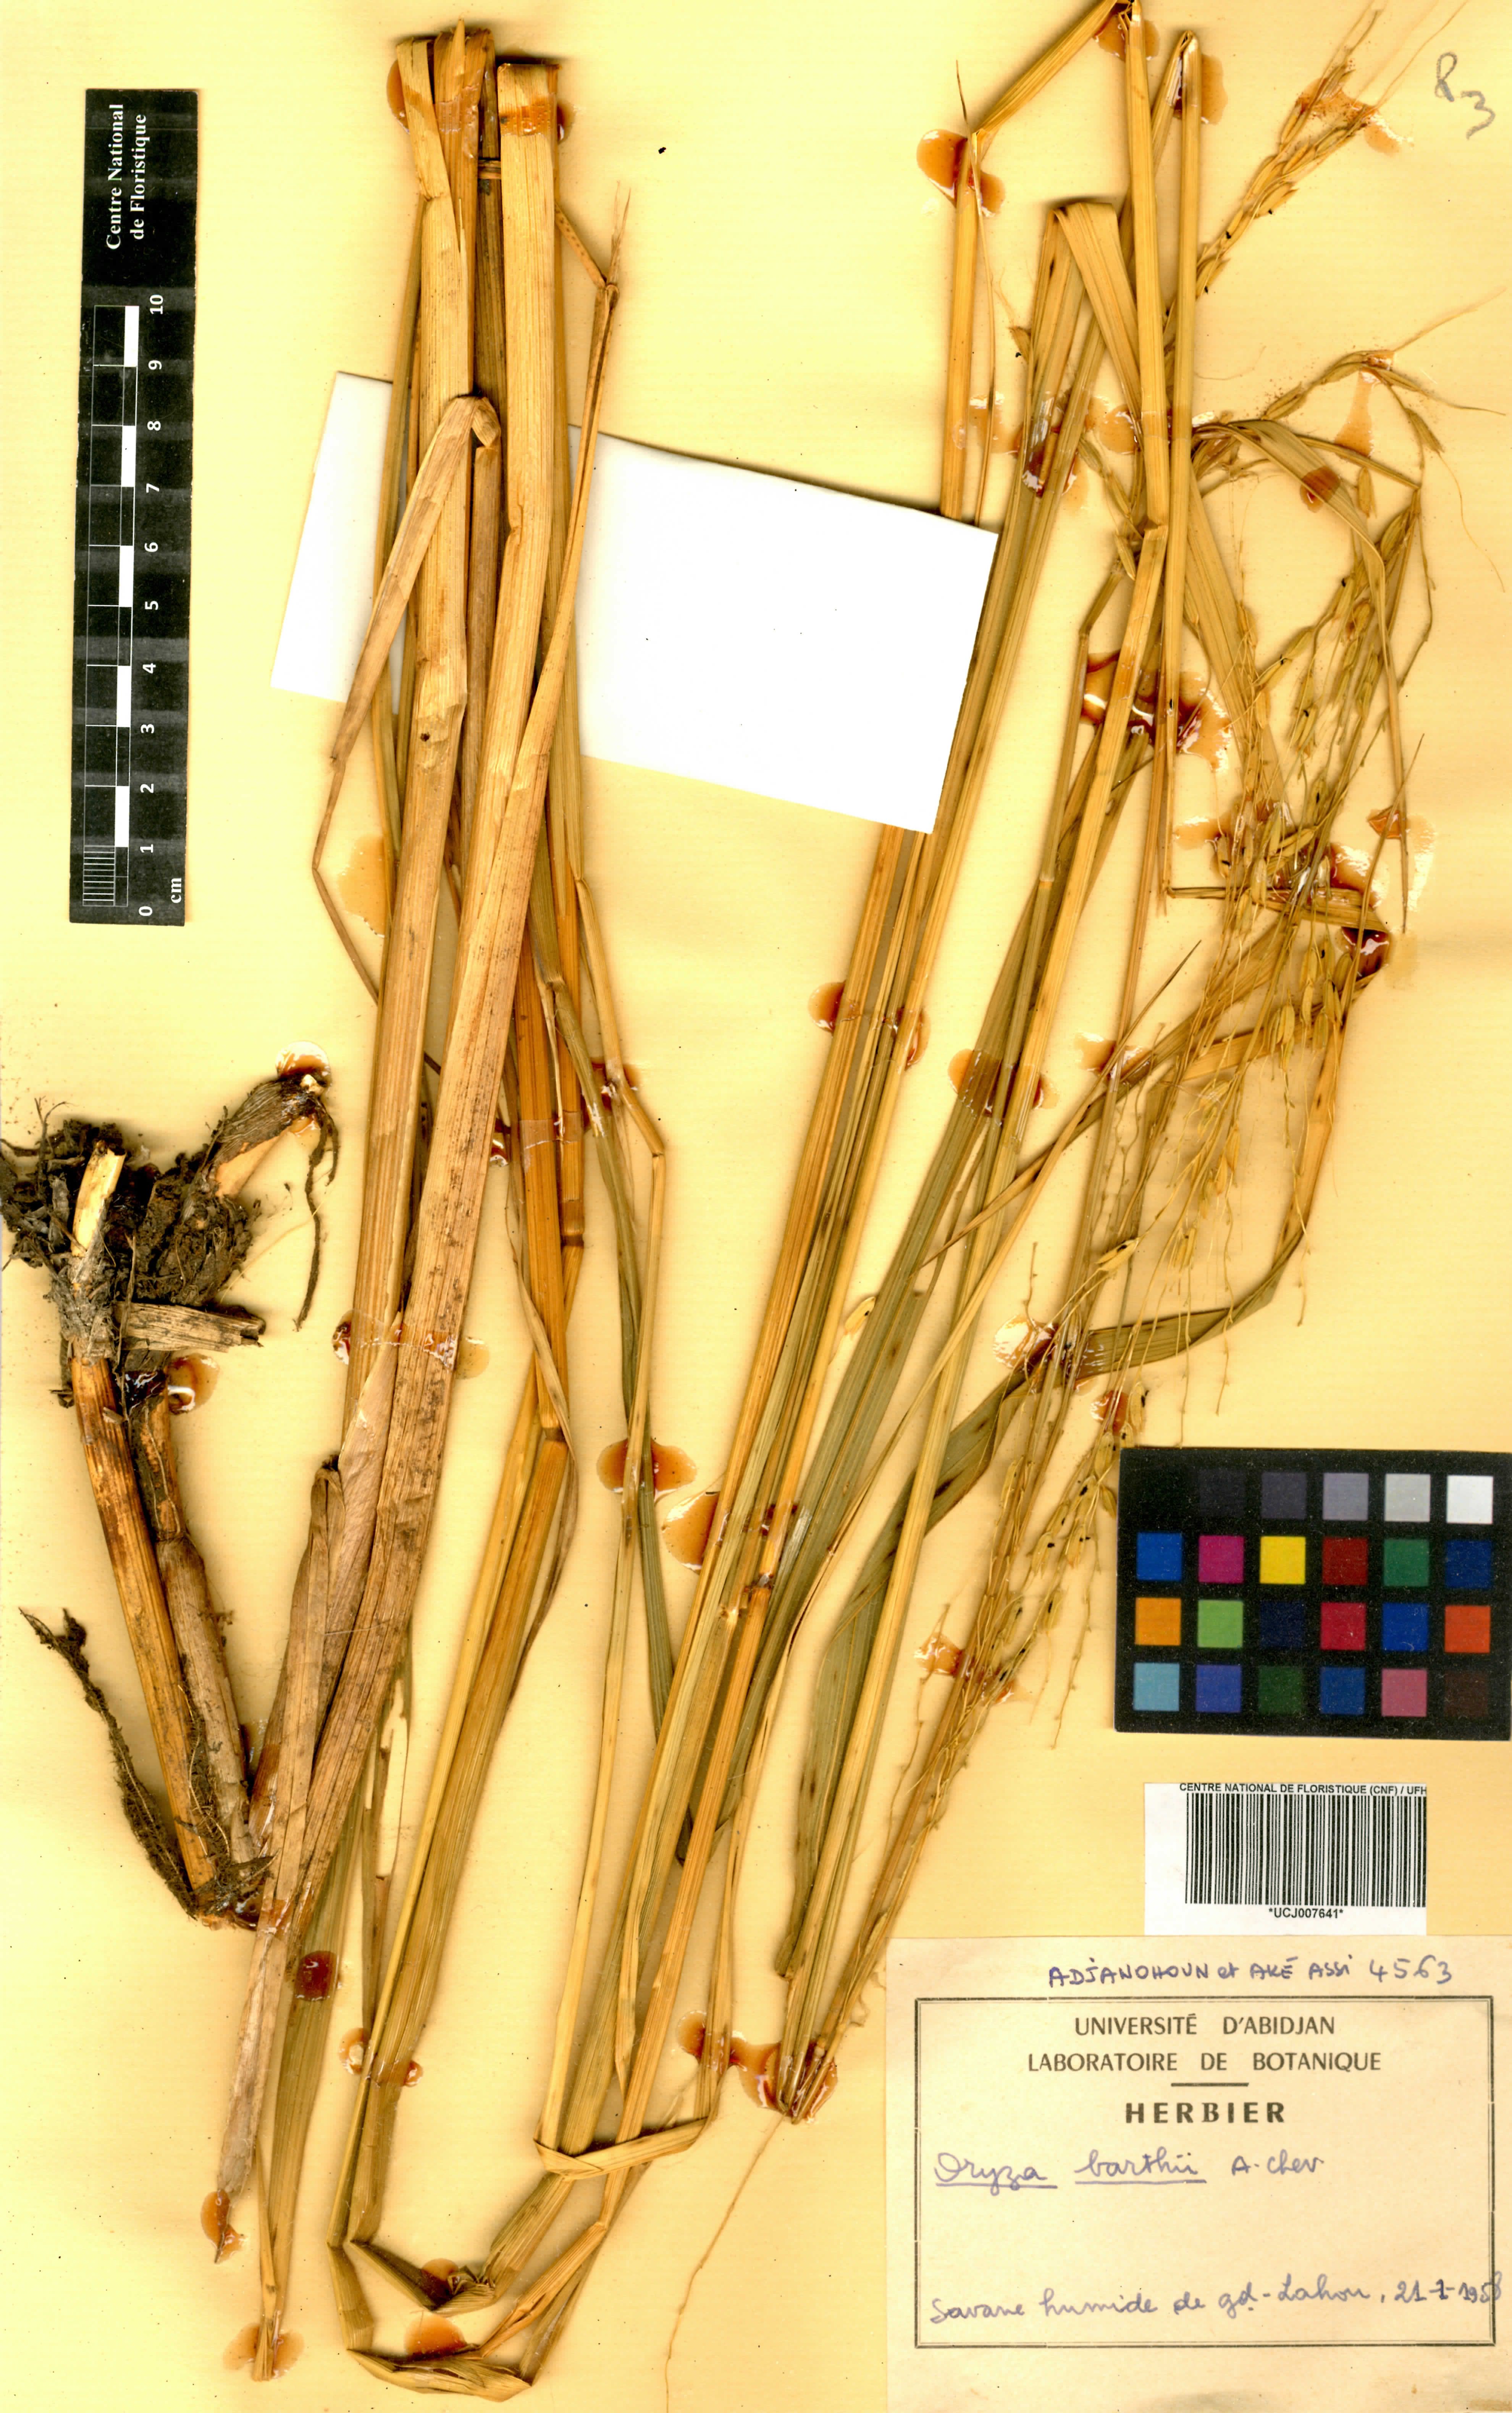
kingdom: Plantae
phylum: Tracheophyta
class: Liliopsida
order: Poales
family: Poaceae
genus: Oryza
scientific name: Oryza barthii
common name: Wild rice
